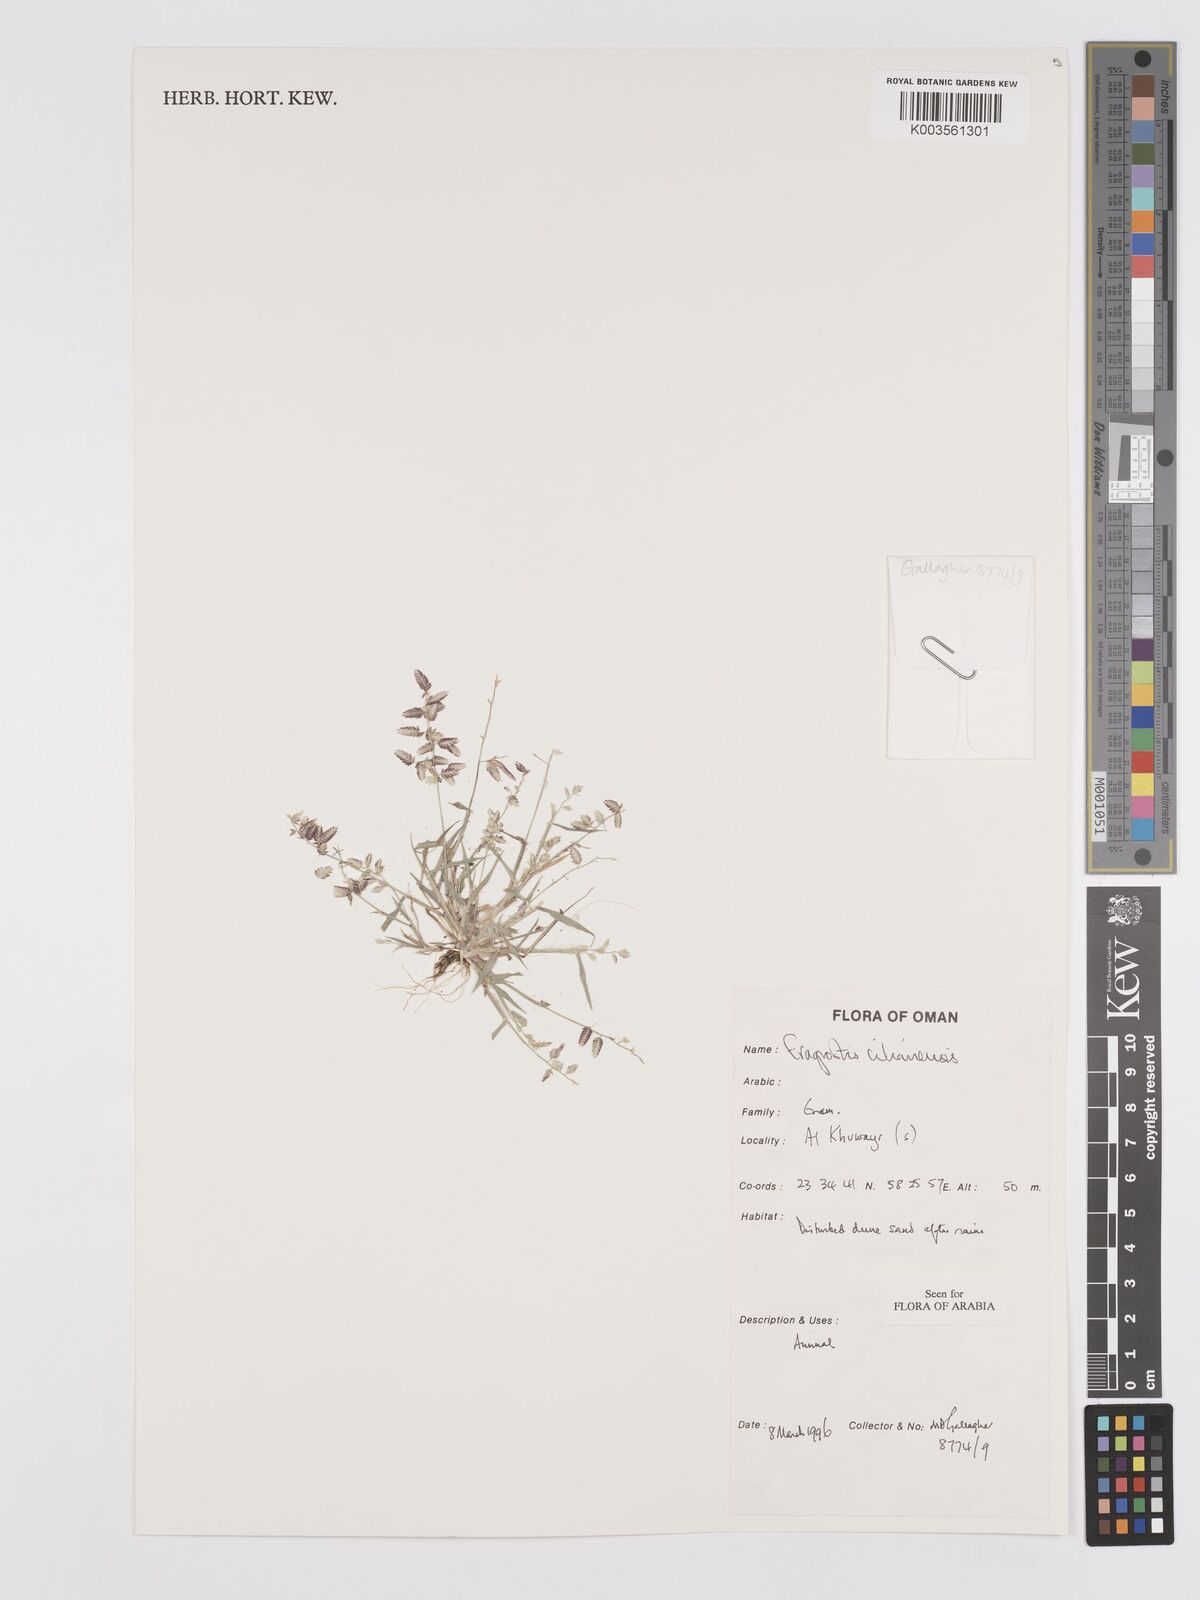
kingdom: Plantae
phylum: Tracheophyta
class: Liliopsida
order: Poales
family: Poaceae
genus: Eragrostis
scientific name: Eragrostis cilianensis
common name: Stinkgrass
